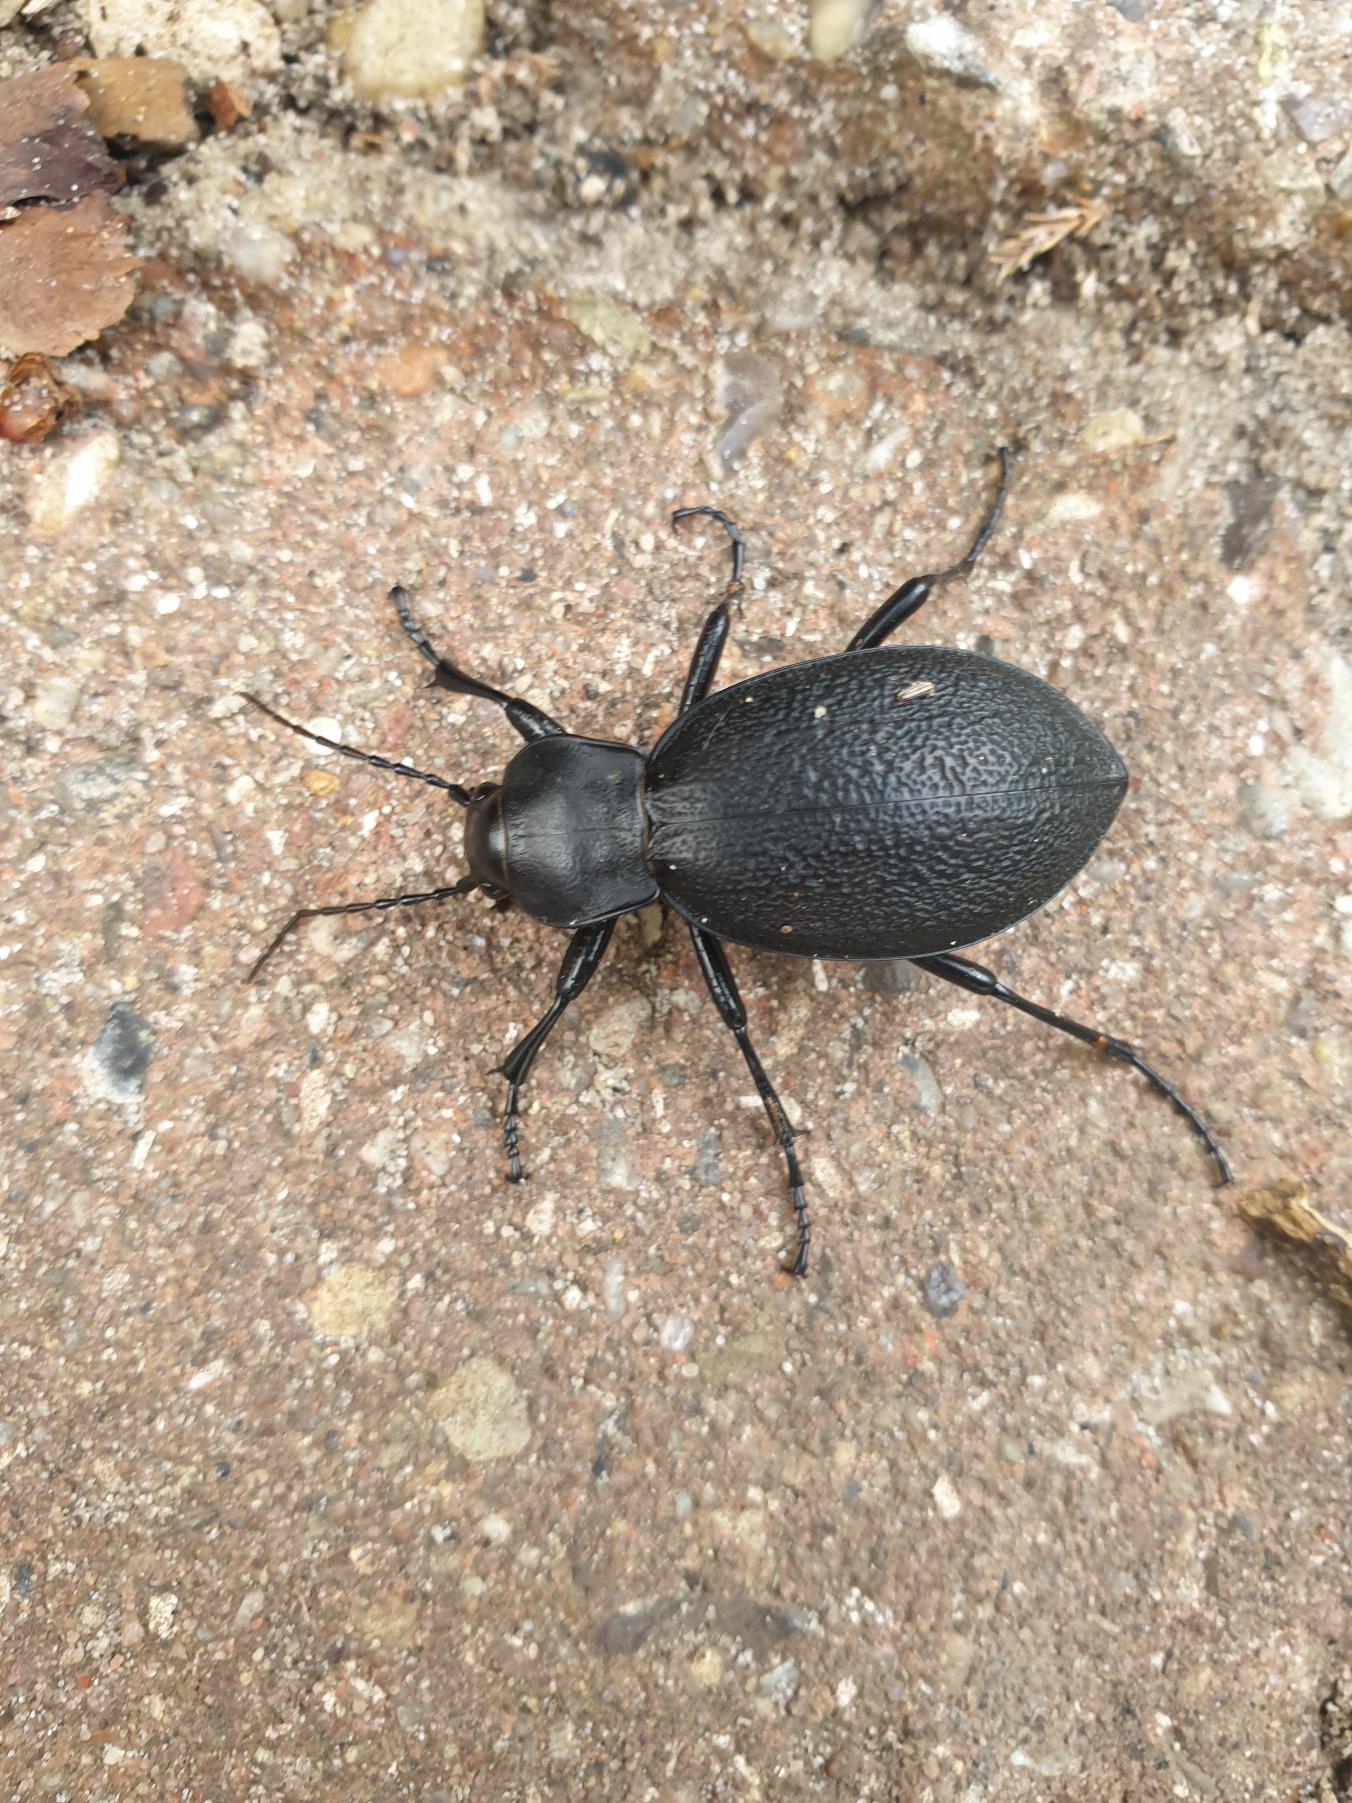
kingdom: Animalia
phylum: Arthropoda
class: Insecta
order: Coleoptera
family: Carabidae
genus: Carabus
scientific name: Carabus coriaceus
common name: Læderløber
